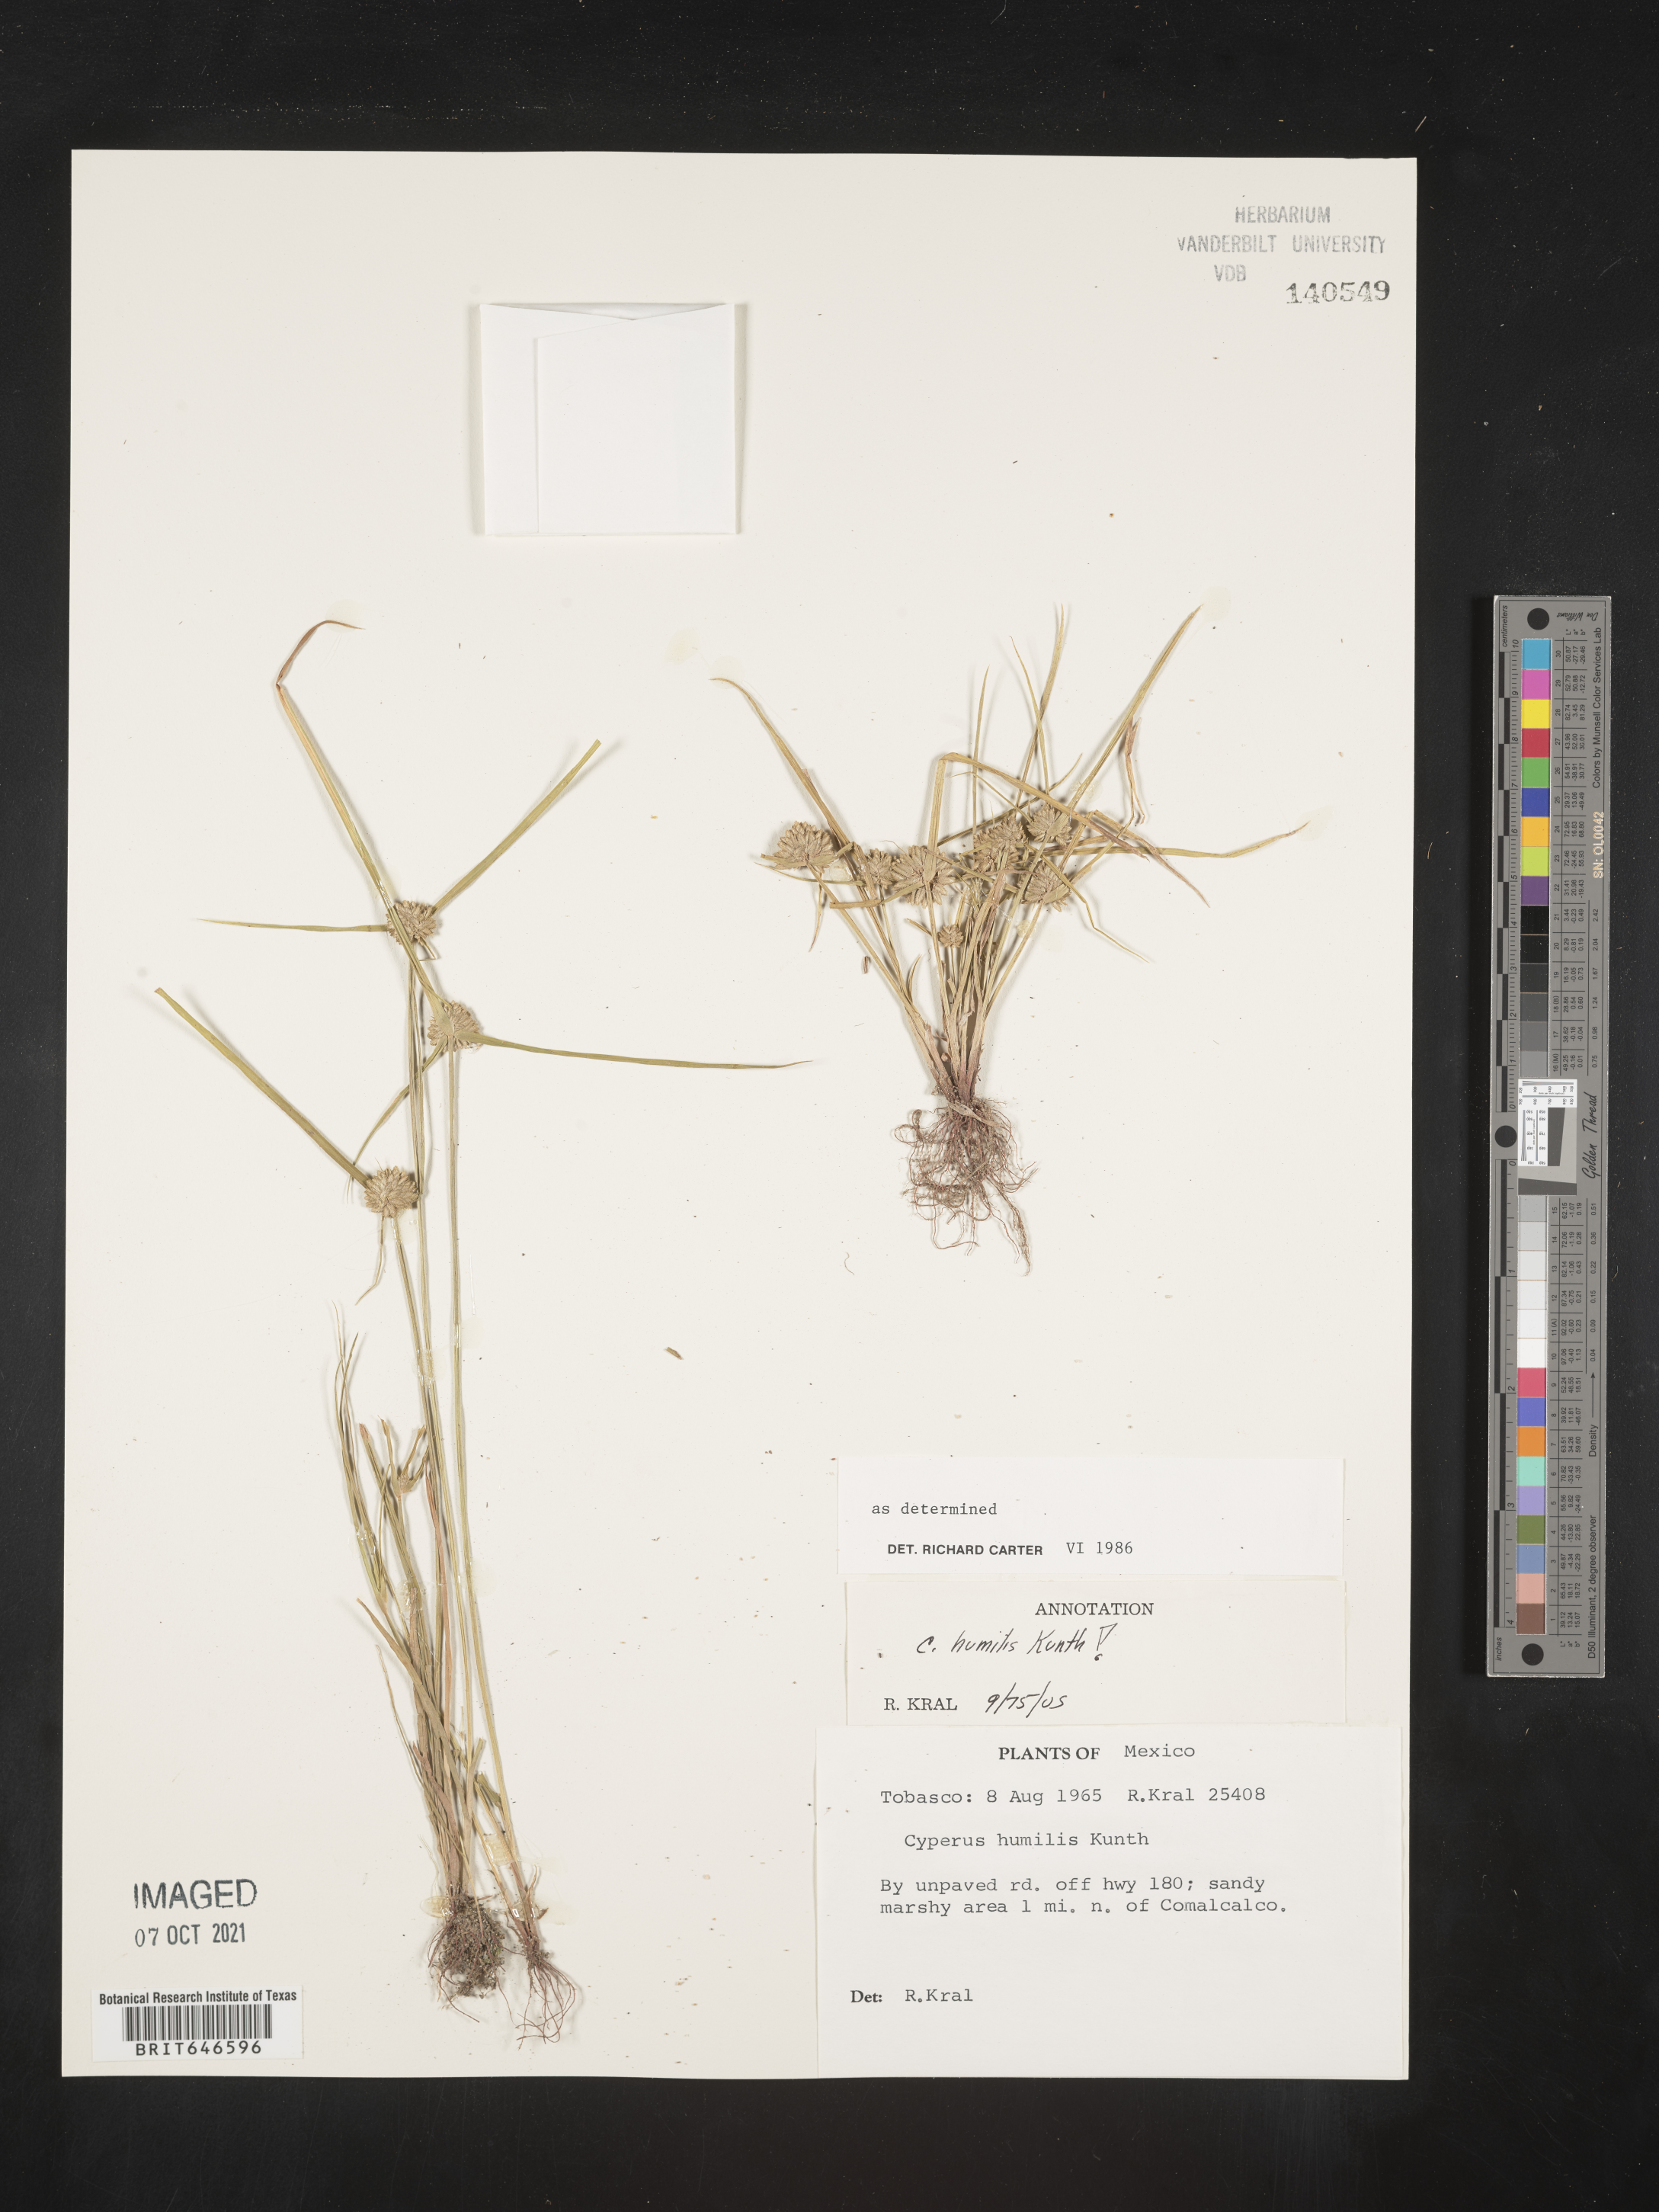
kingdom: Plantae
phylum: Tracheophyta
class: Liliopsida
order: Poales
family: Cyperaceae
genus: Cyperus
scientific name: Cyperus
